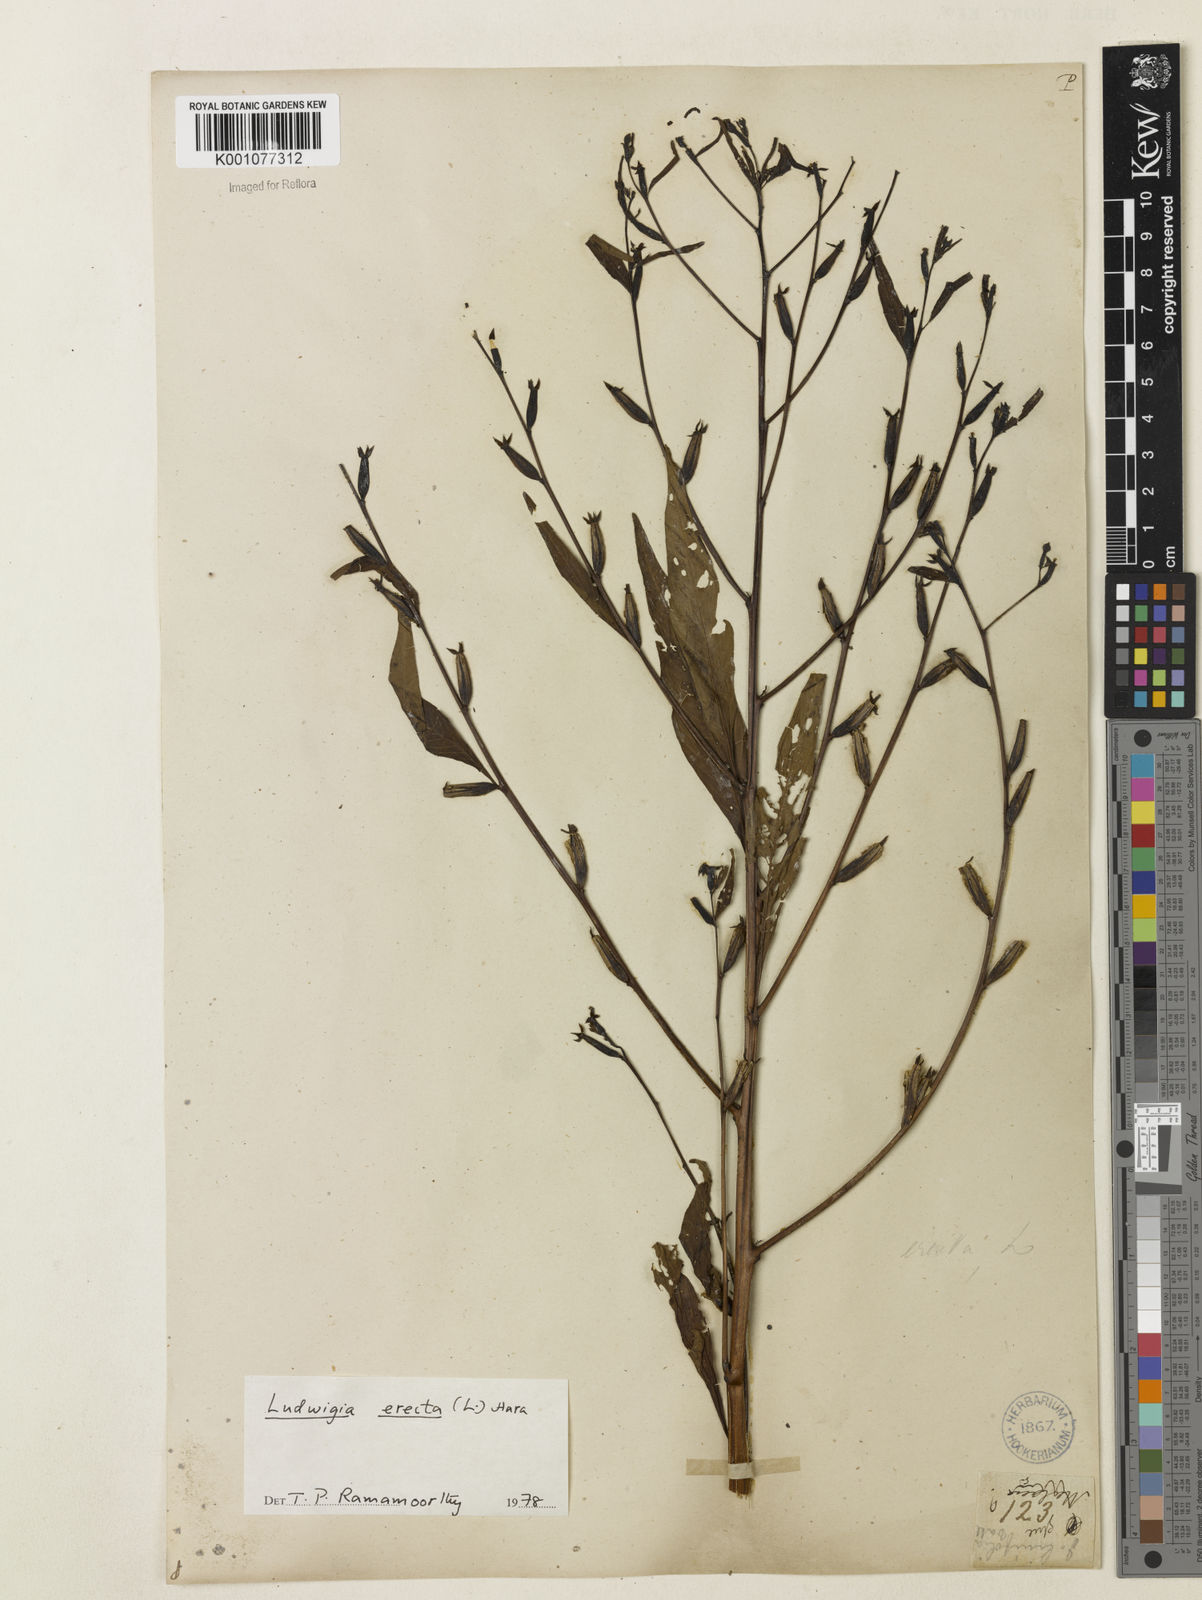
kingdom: Plantae
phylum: Tracheophyta
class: Magnoliopsida
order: Myrtales
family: Onagraceae
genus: Ludwigia
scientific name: Ludwigia erecta
